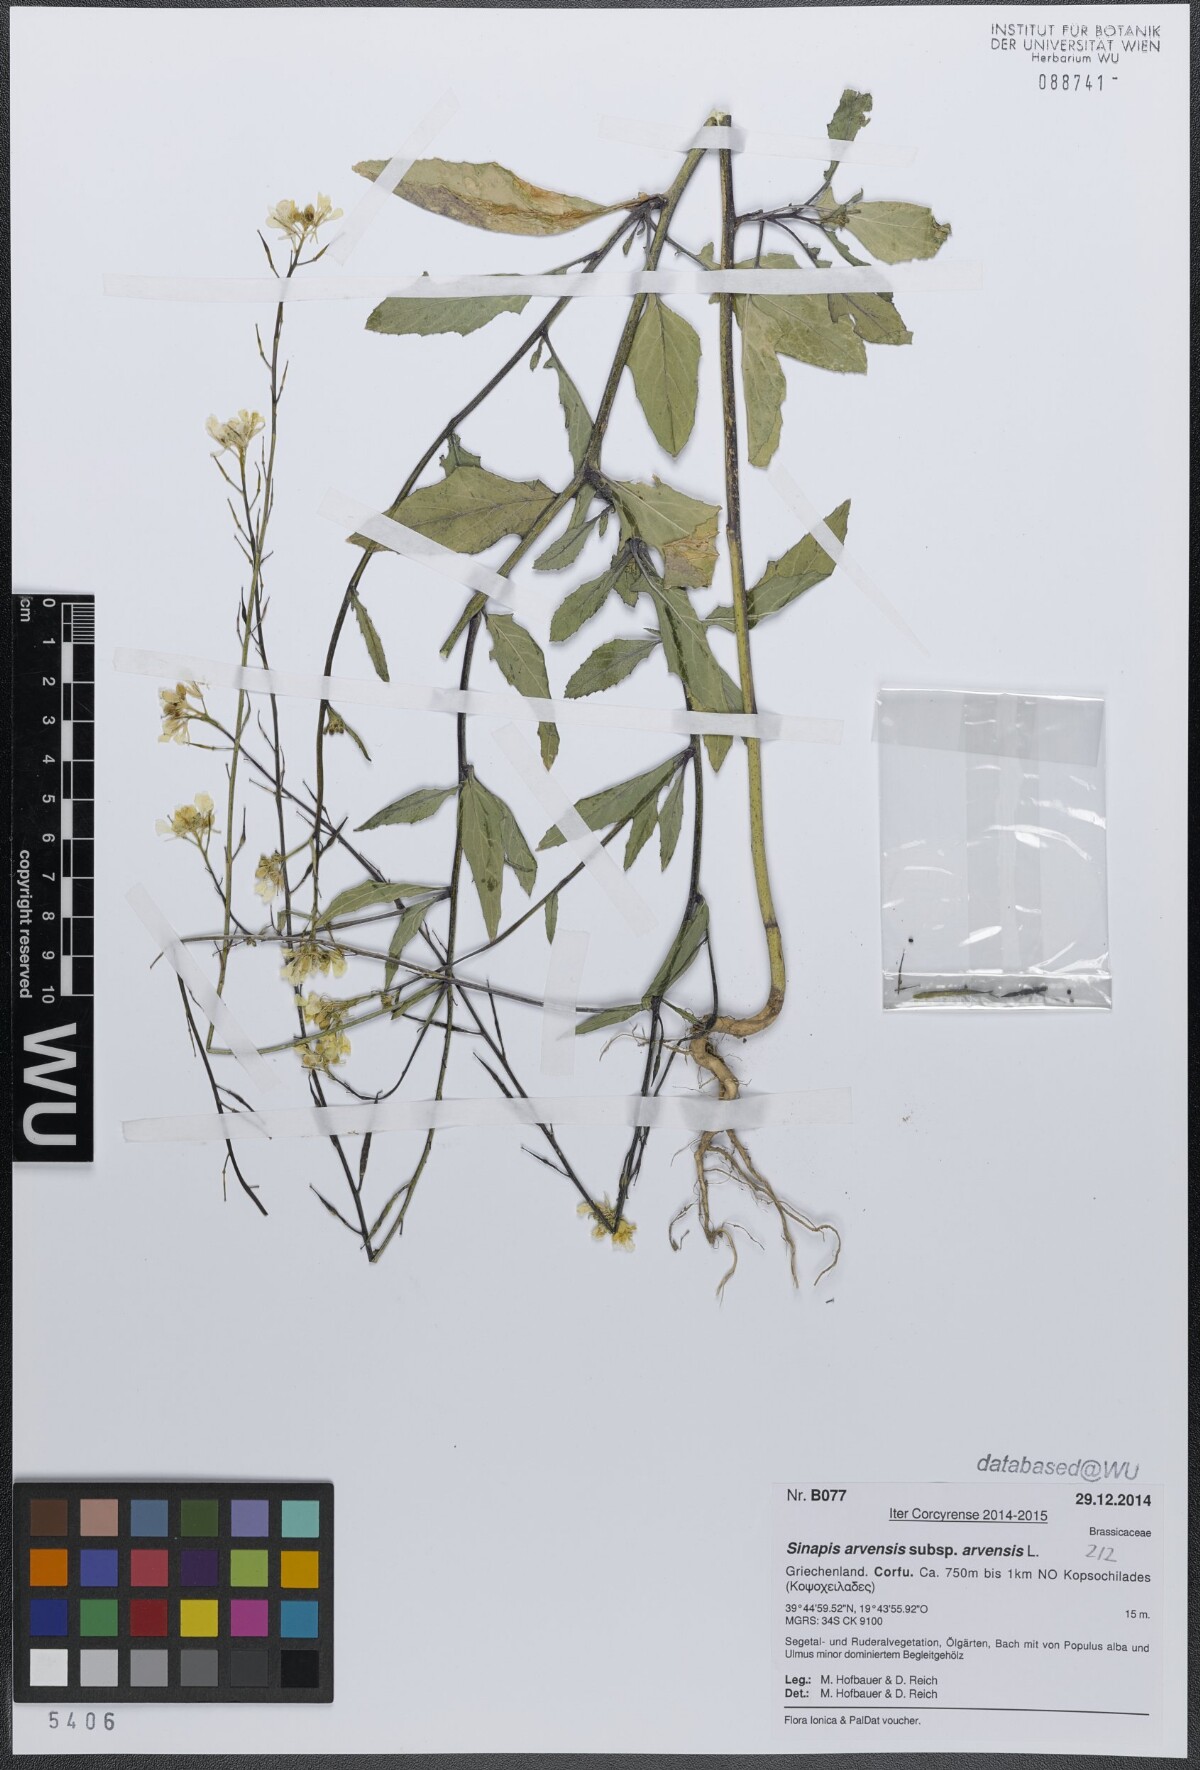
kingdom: Plantae
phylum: Tracheophyta
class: Magnoliopsida
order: Brassicales
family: Brassicaceae
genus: Sinapis
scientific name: Sinapis arvensis
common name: Charlock
